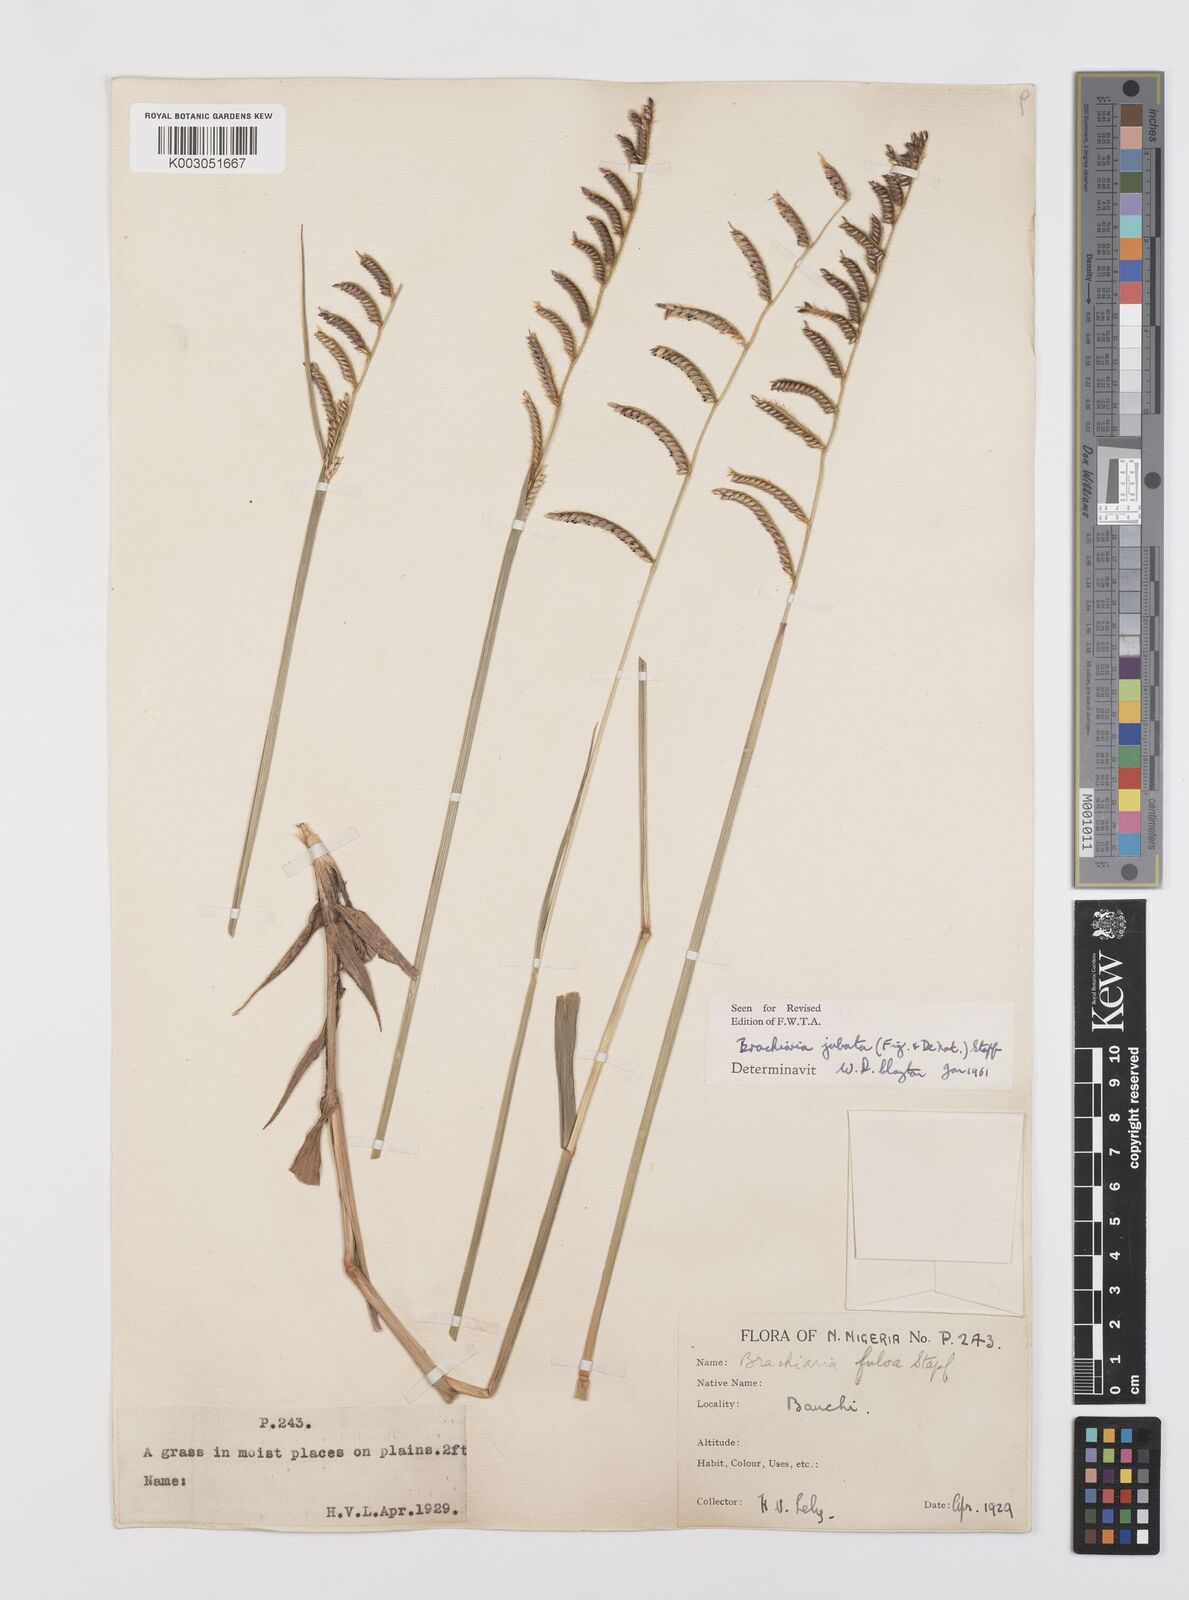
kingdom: Plantae
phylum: Tracheophyta
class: Liliopsida
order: Poales
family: Poaceae
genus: Urochloa
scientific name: Urochloa jubata
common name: Buffalograss
